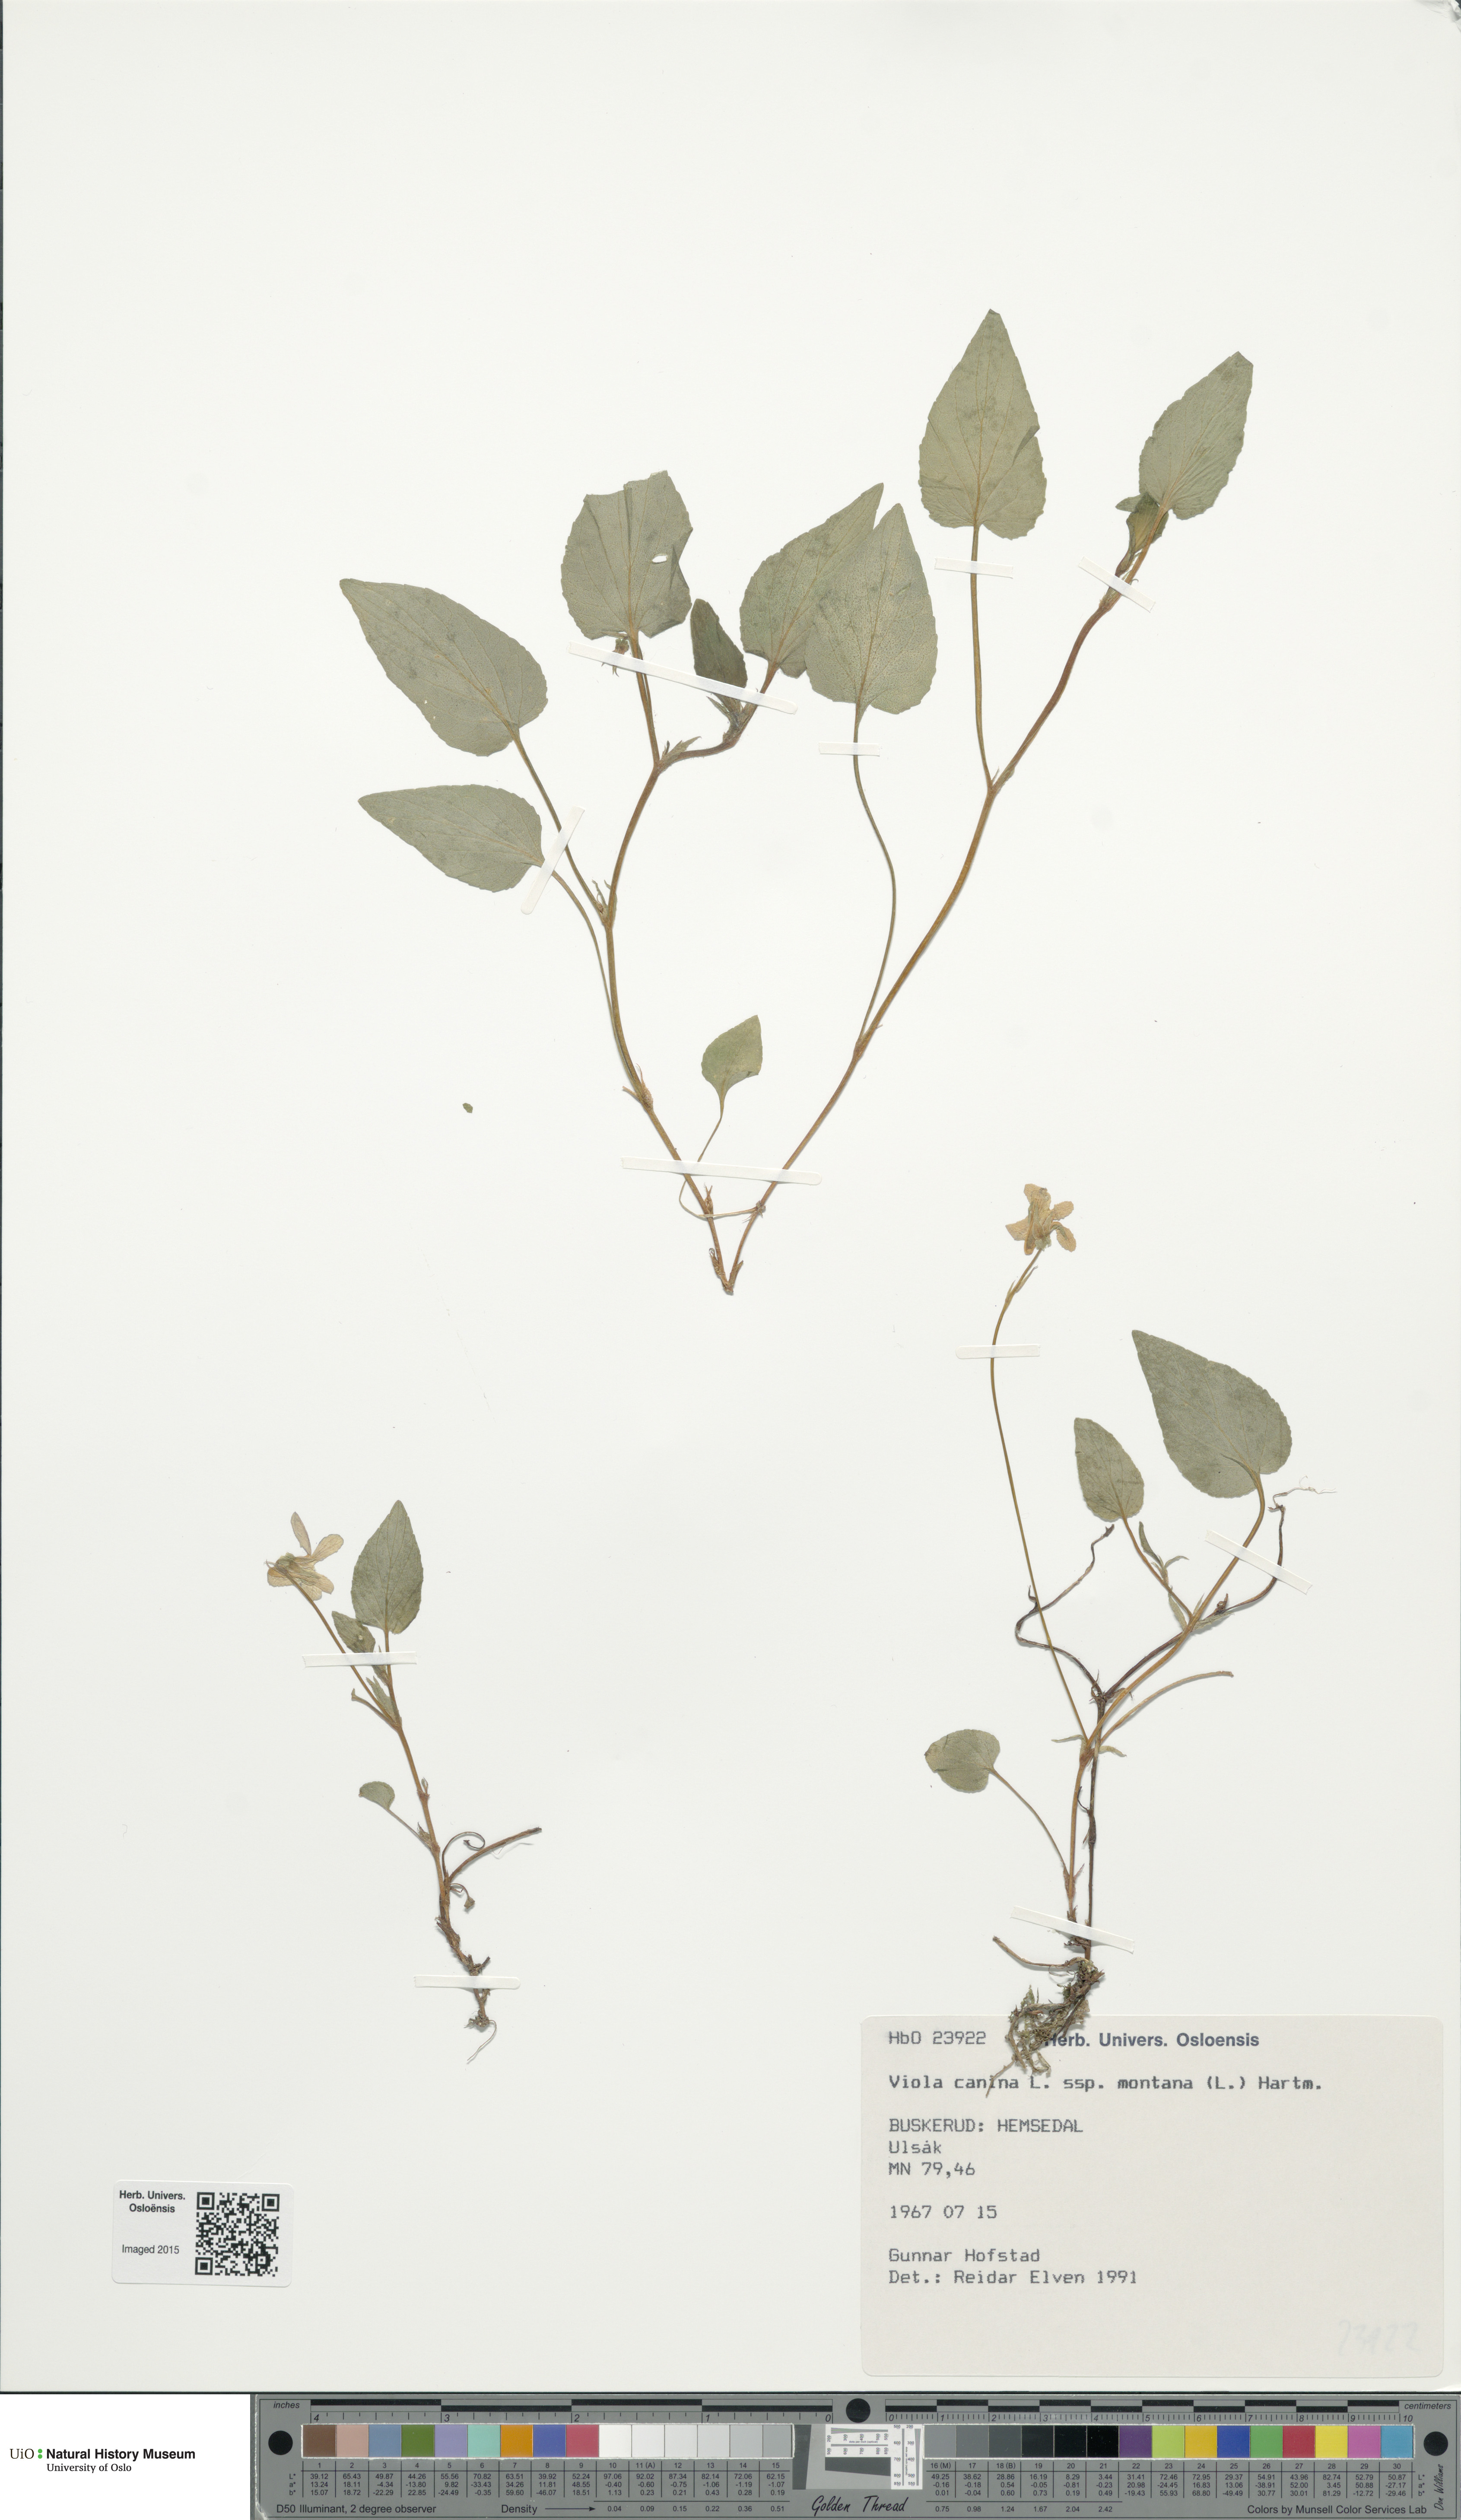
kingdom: Plantae
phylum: Tracheophyta
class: Magnoliopsida
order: Malpighiales
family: Violaceae
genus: Viola
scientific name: Viola ruppii
